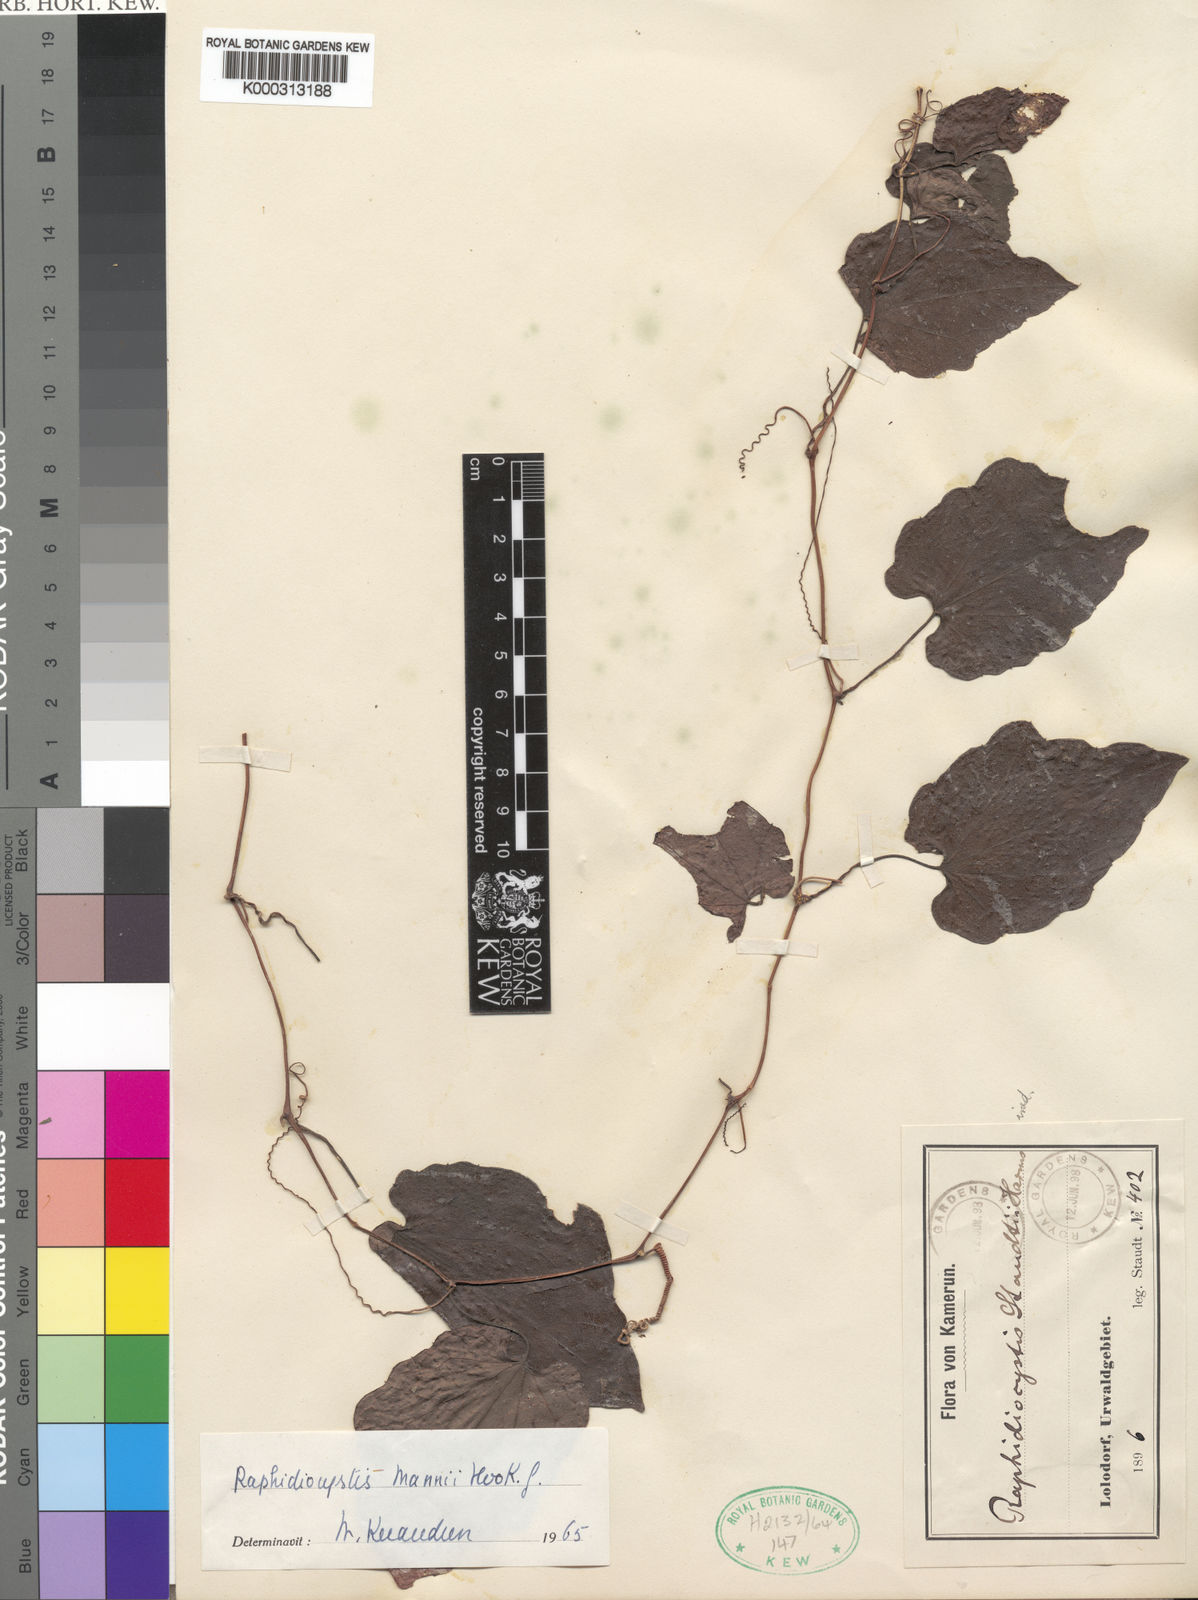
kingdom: Plantae
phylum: Tracheophyta
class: Magnoliopsida
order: Cucurbitales
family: Cucurbitaceae
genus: Raphidiocystis
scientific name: Raphidiocystis mannii
